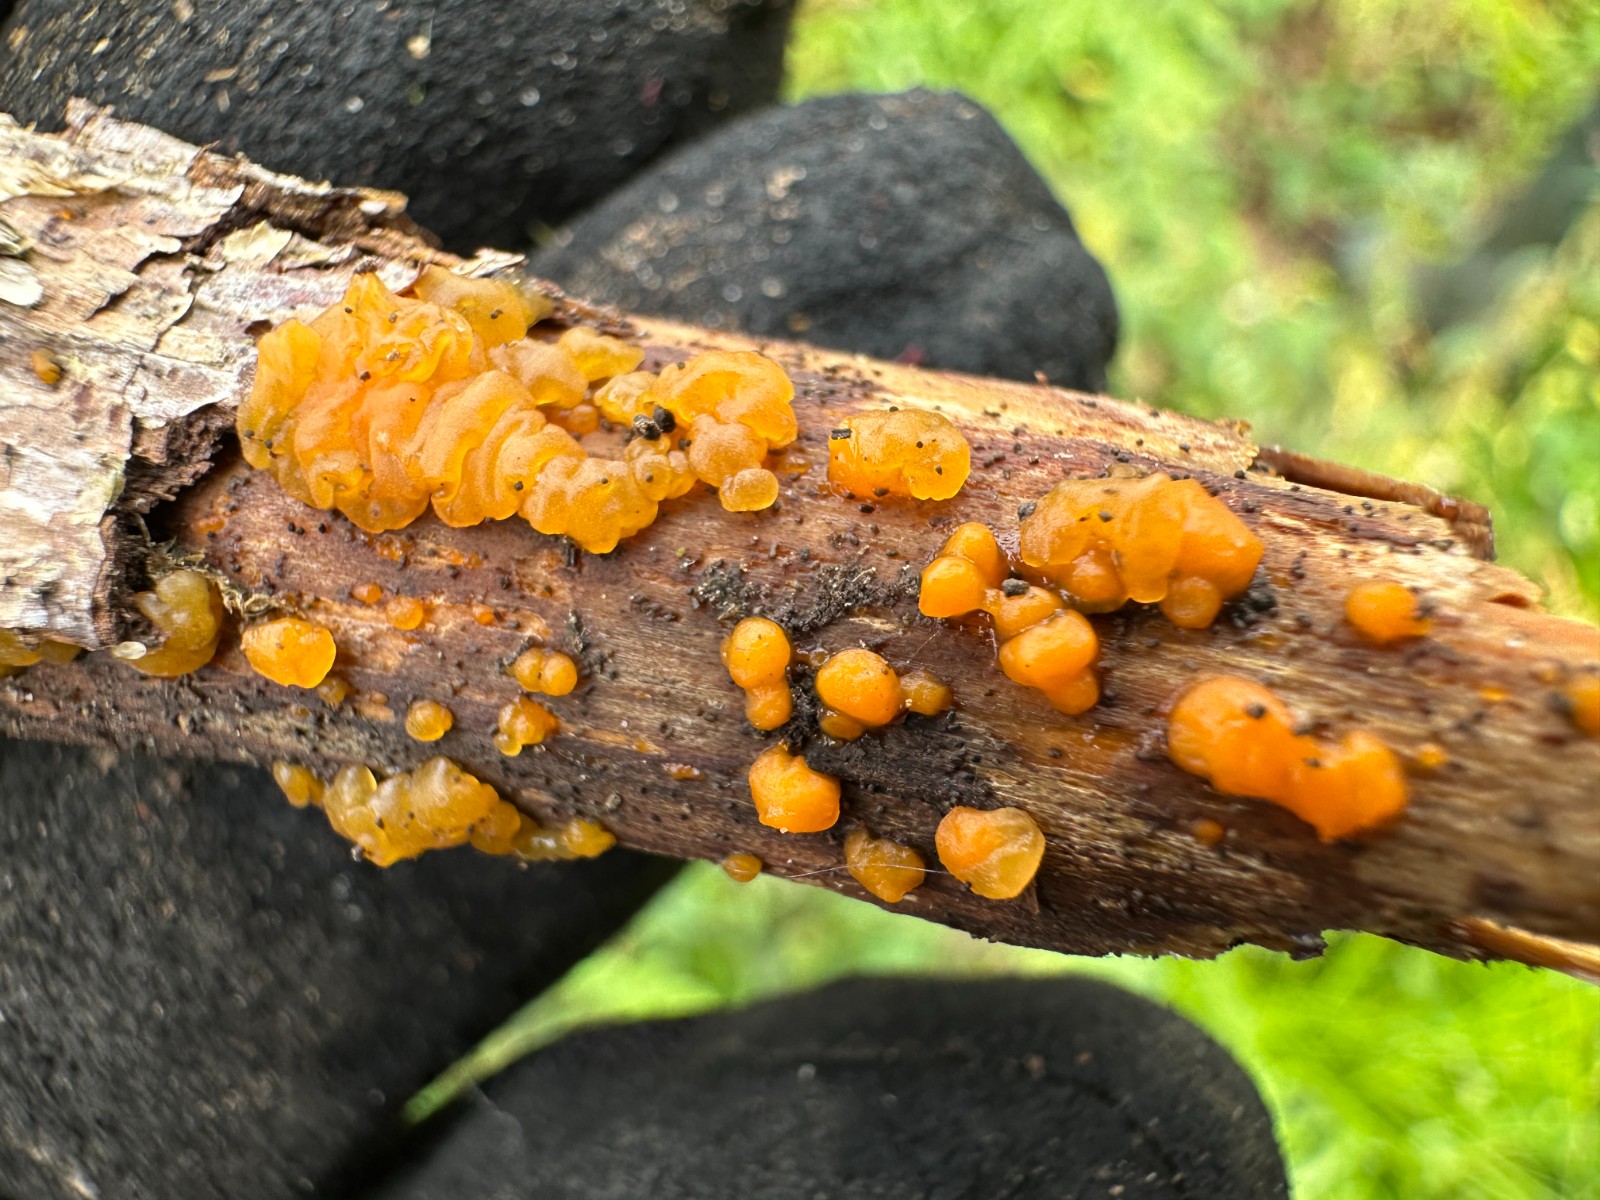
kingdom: Fungi
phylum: Basidiomycota
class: Dacrymycetes
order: Dacrymycetales
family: Dacrymycetaceae
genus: Dacrymyces
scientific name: Dacrymyces stillatus
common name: almindelig tåresvamp
